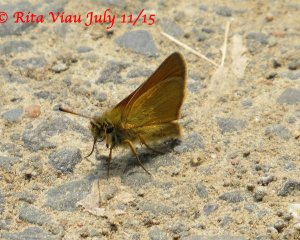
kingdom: Animalia
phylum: Arthropoda
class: Insecta
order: Lepidoptera
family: Hesperiidae
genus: Thymelicus
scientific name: Thymelicus lineola
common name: European Skipper
